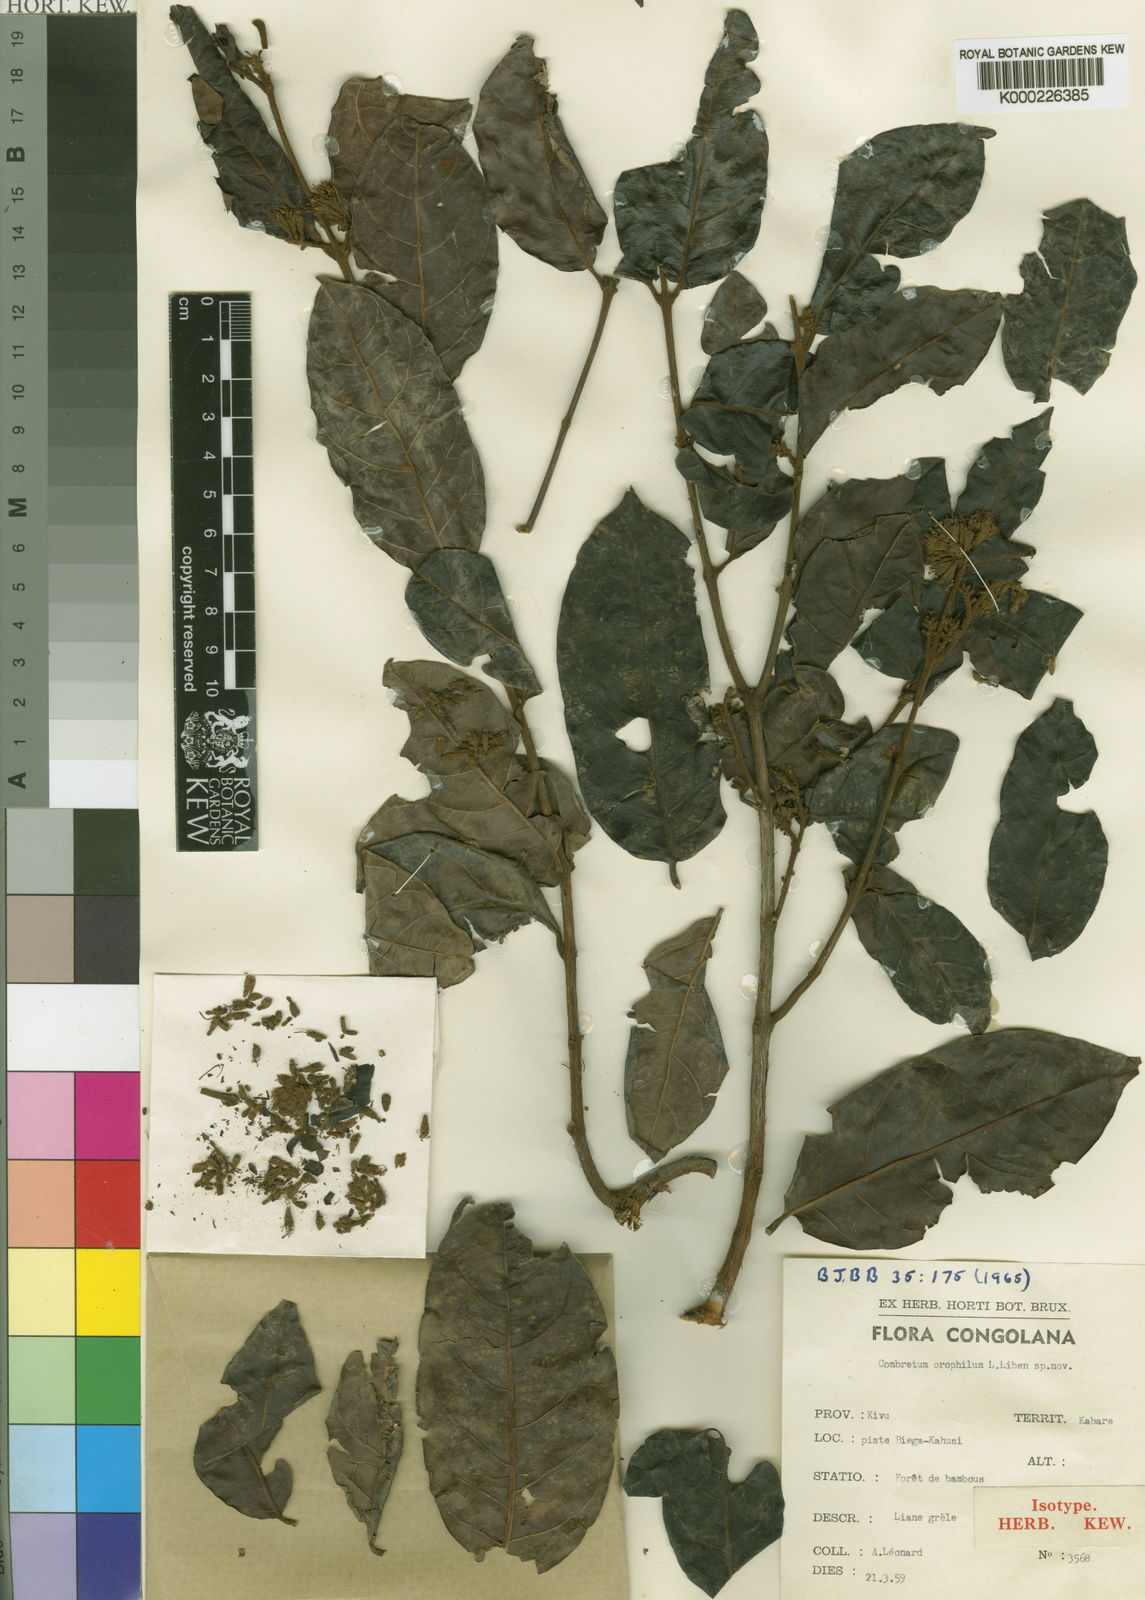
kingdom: Plantae
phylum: Tracheophyta
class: Magnoliopsida
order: Myrtales
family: Combretaceae
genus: Combretum
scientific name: Combretum fuscum
